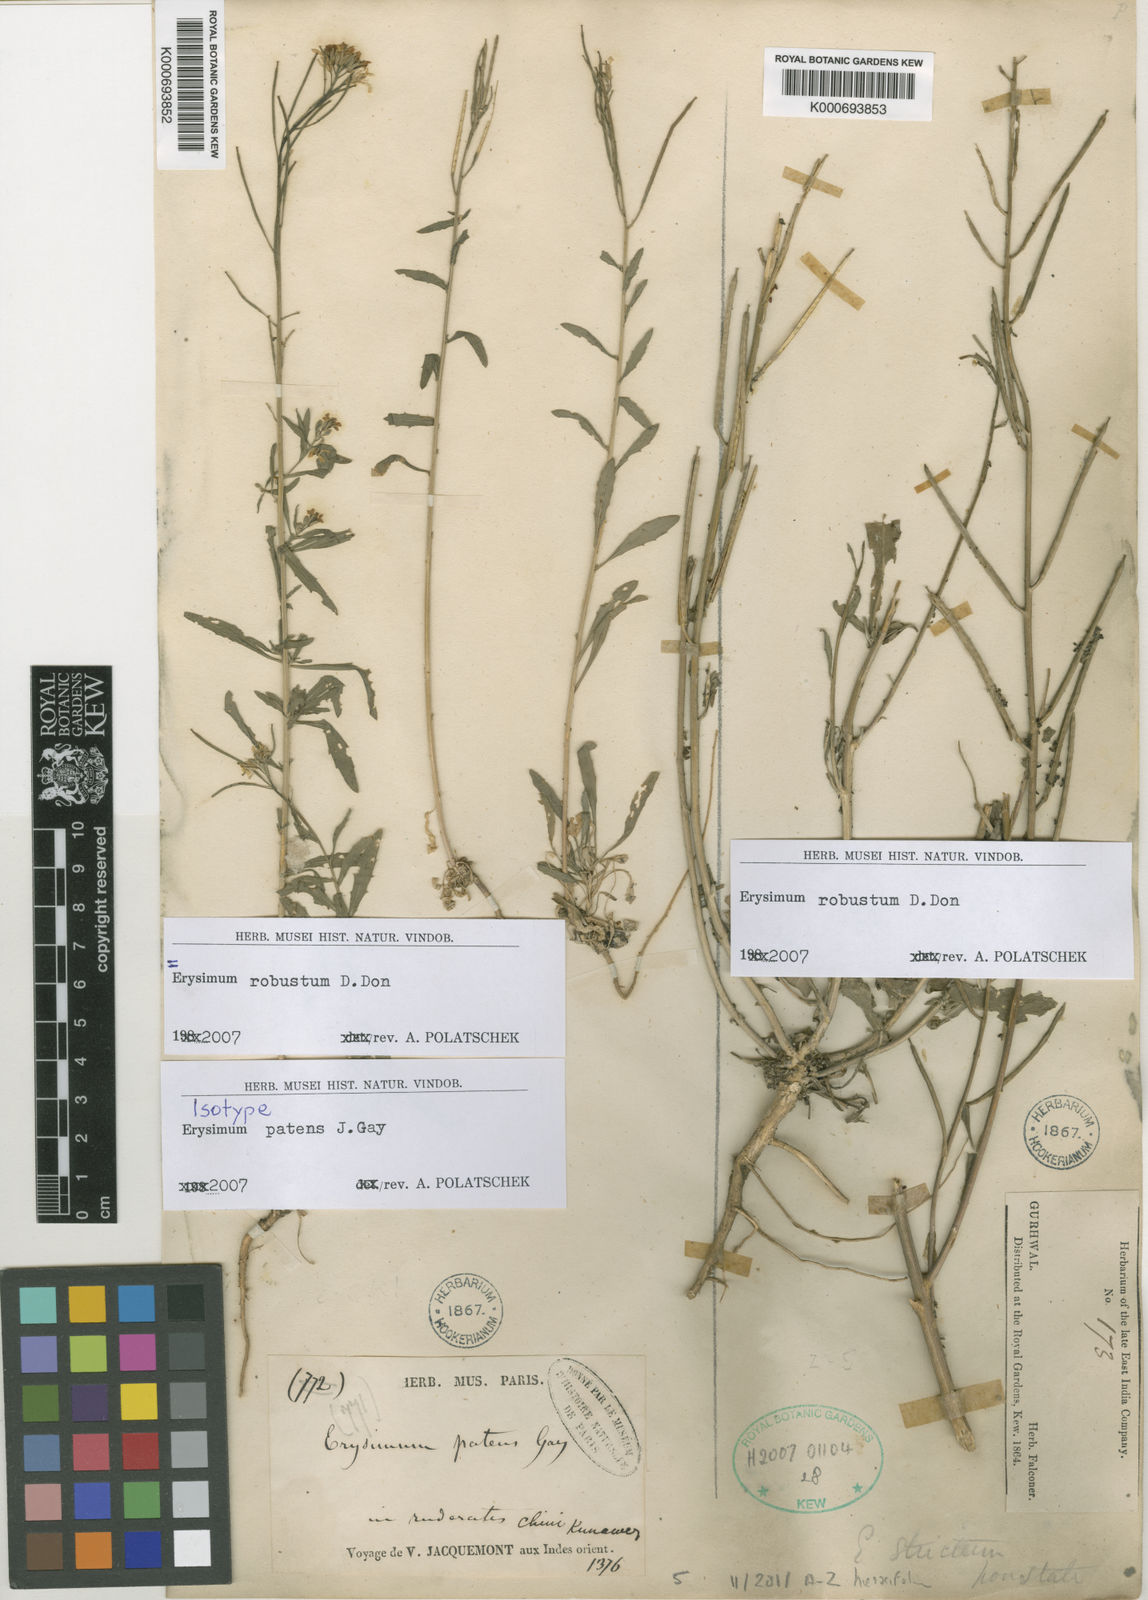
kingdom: Plantae
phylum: Tracheophyta
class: Magnoliopsida
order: Brassicales
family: Brassicaceae
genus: Erysimum
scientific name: Erysimum hieraciifolium
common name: European wallflower
